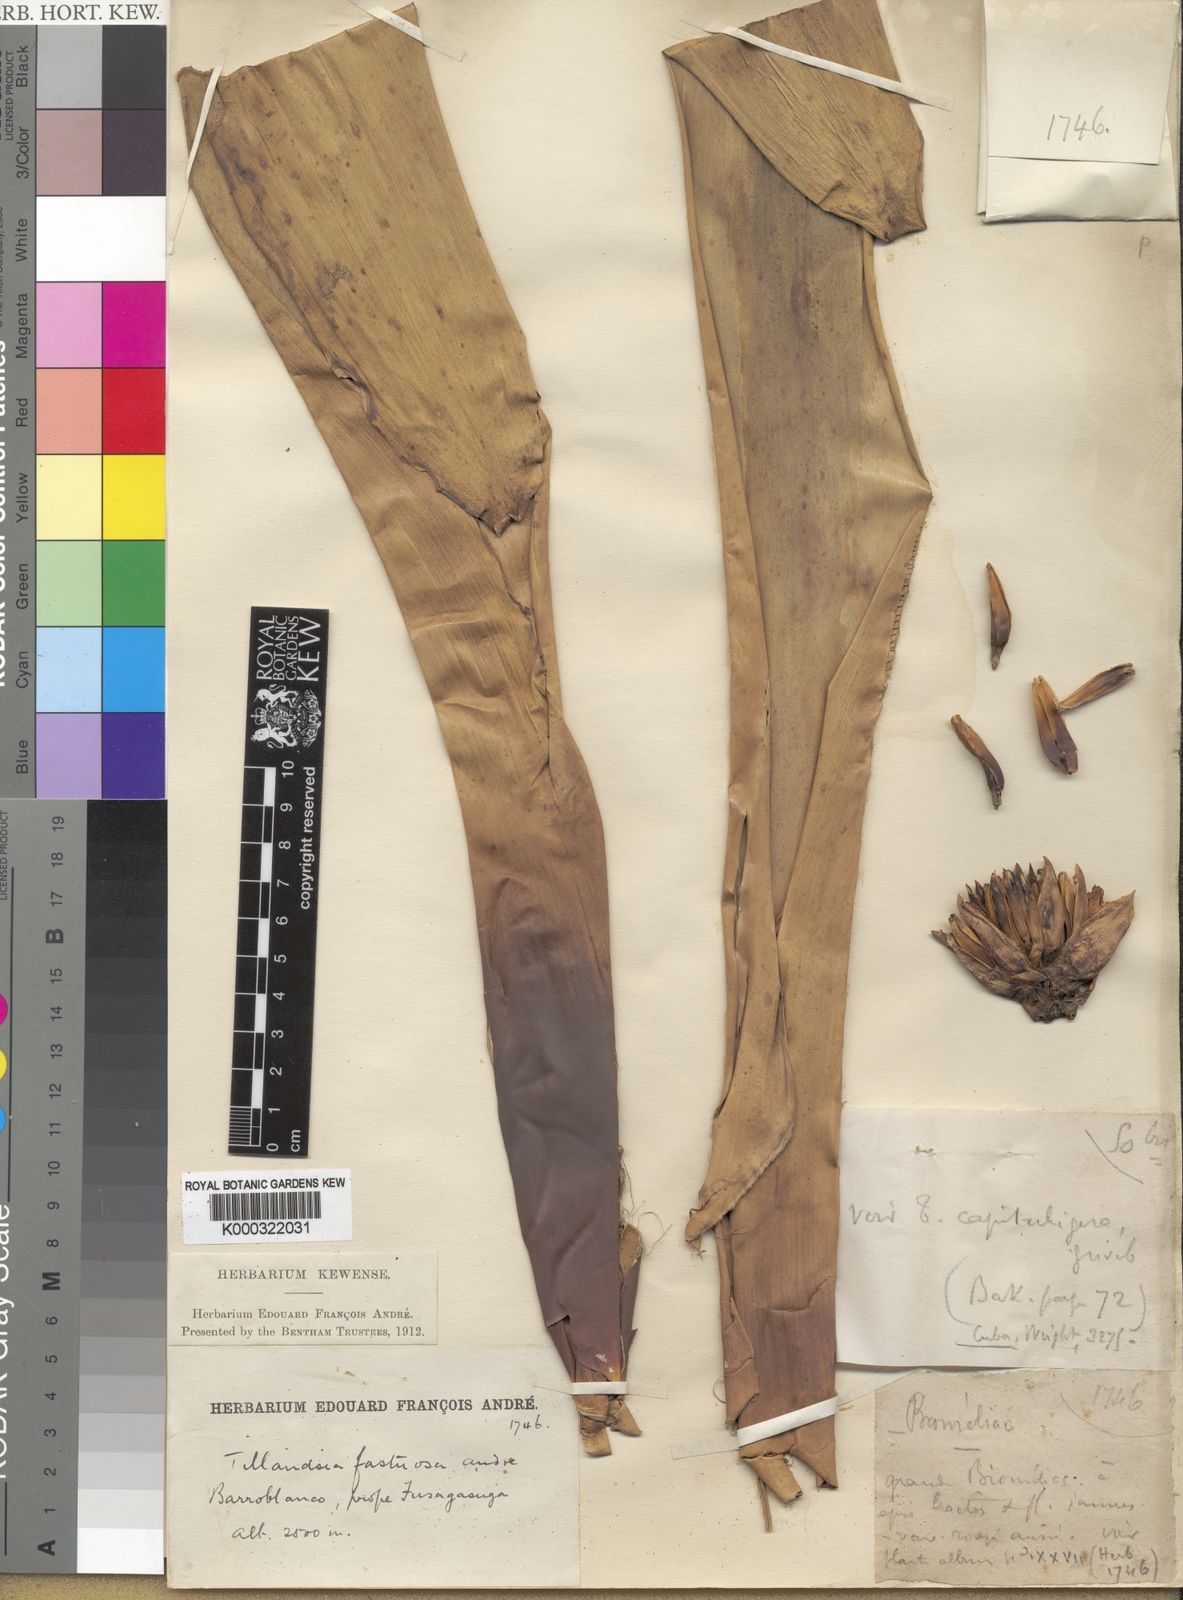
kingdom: Plantae
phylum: Tracheophyta
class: Liliopsida
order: Poales
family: Bromeliaceae
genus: Tillandsia
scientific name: Tillandsia
